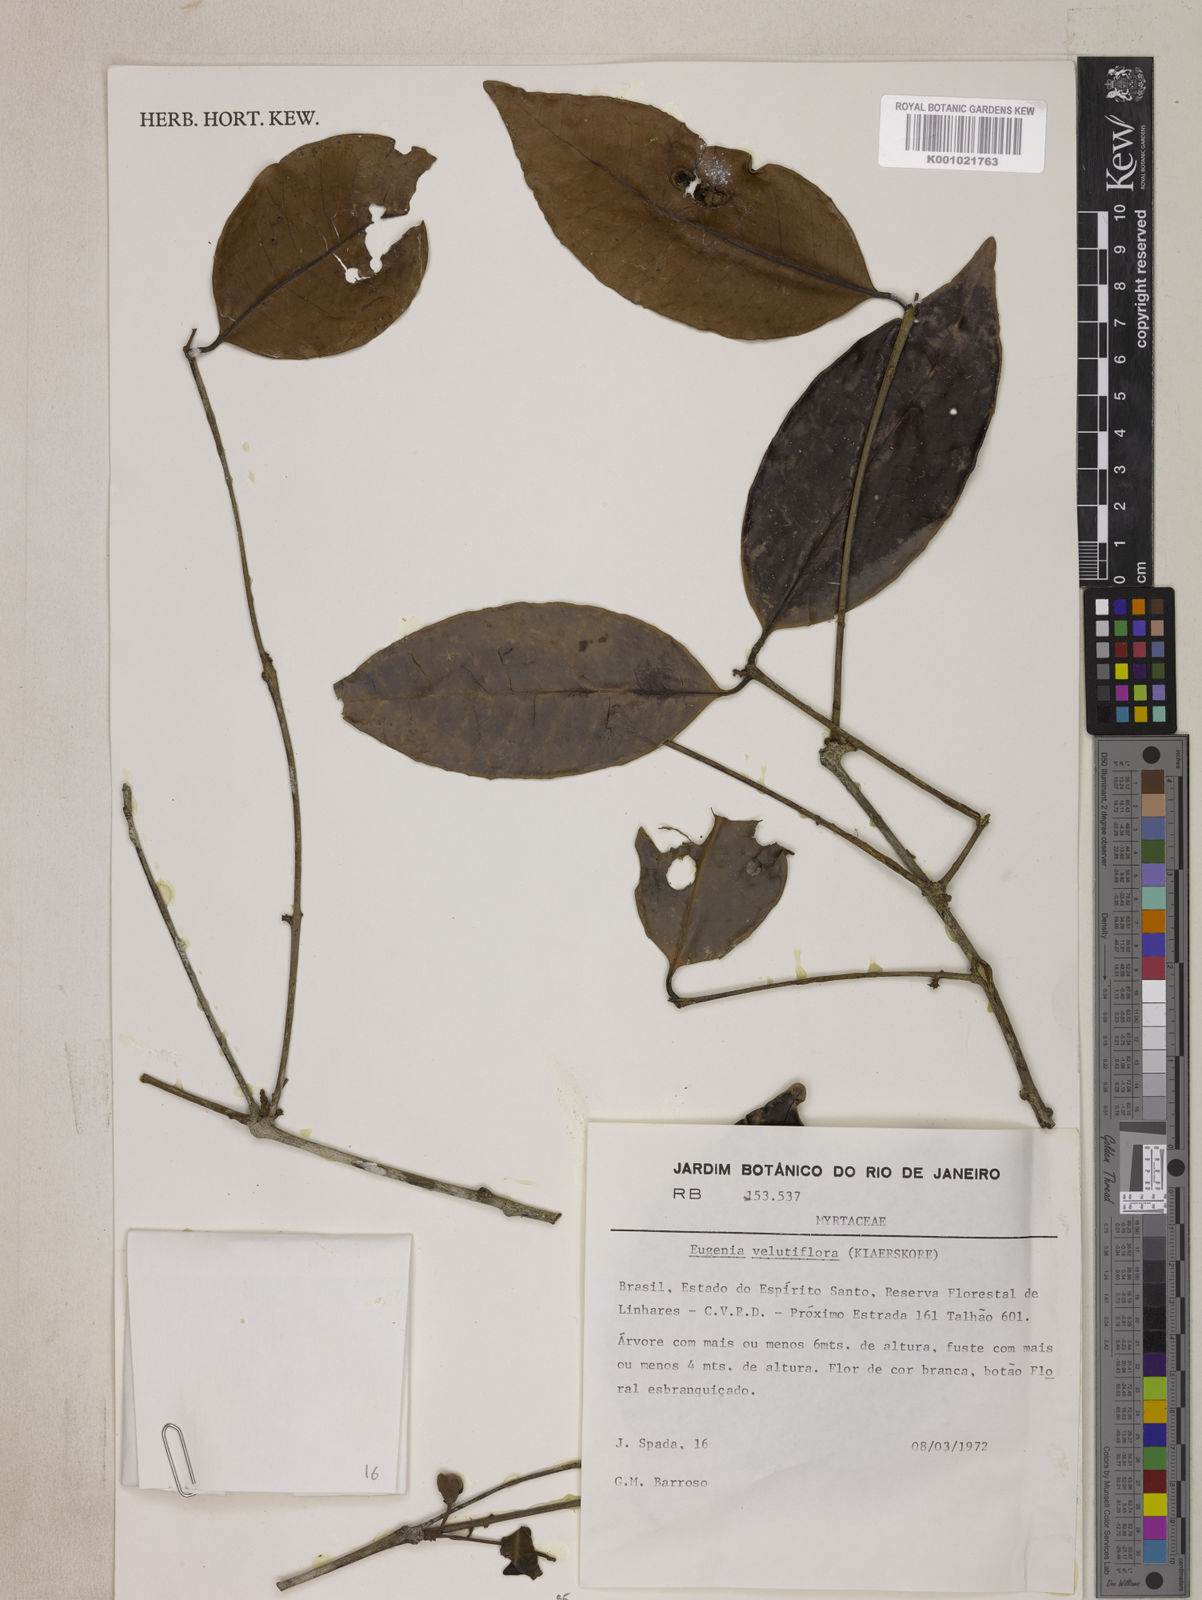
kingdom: Plantae
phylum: Tracheophyta
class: Magnoliopsida
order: Myrtales
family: Myrtaceae
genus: Eugenia
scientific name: Eugenia bahiensis
